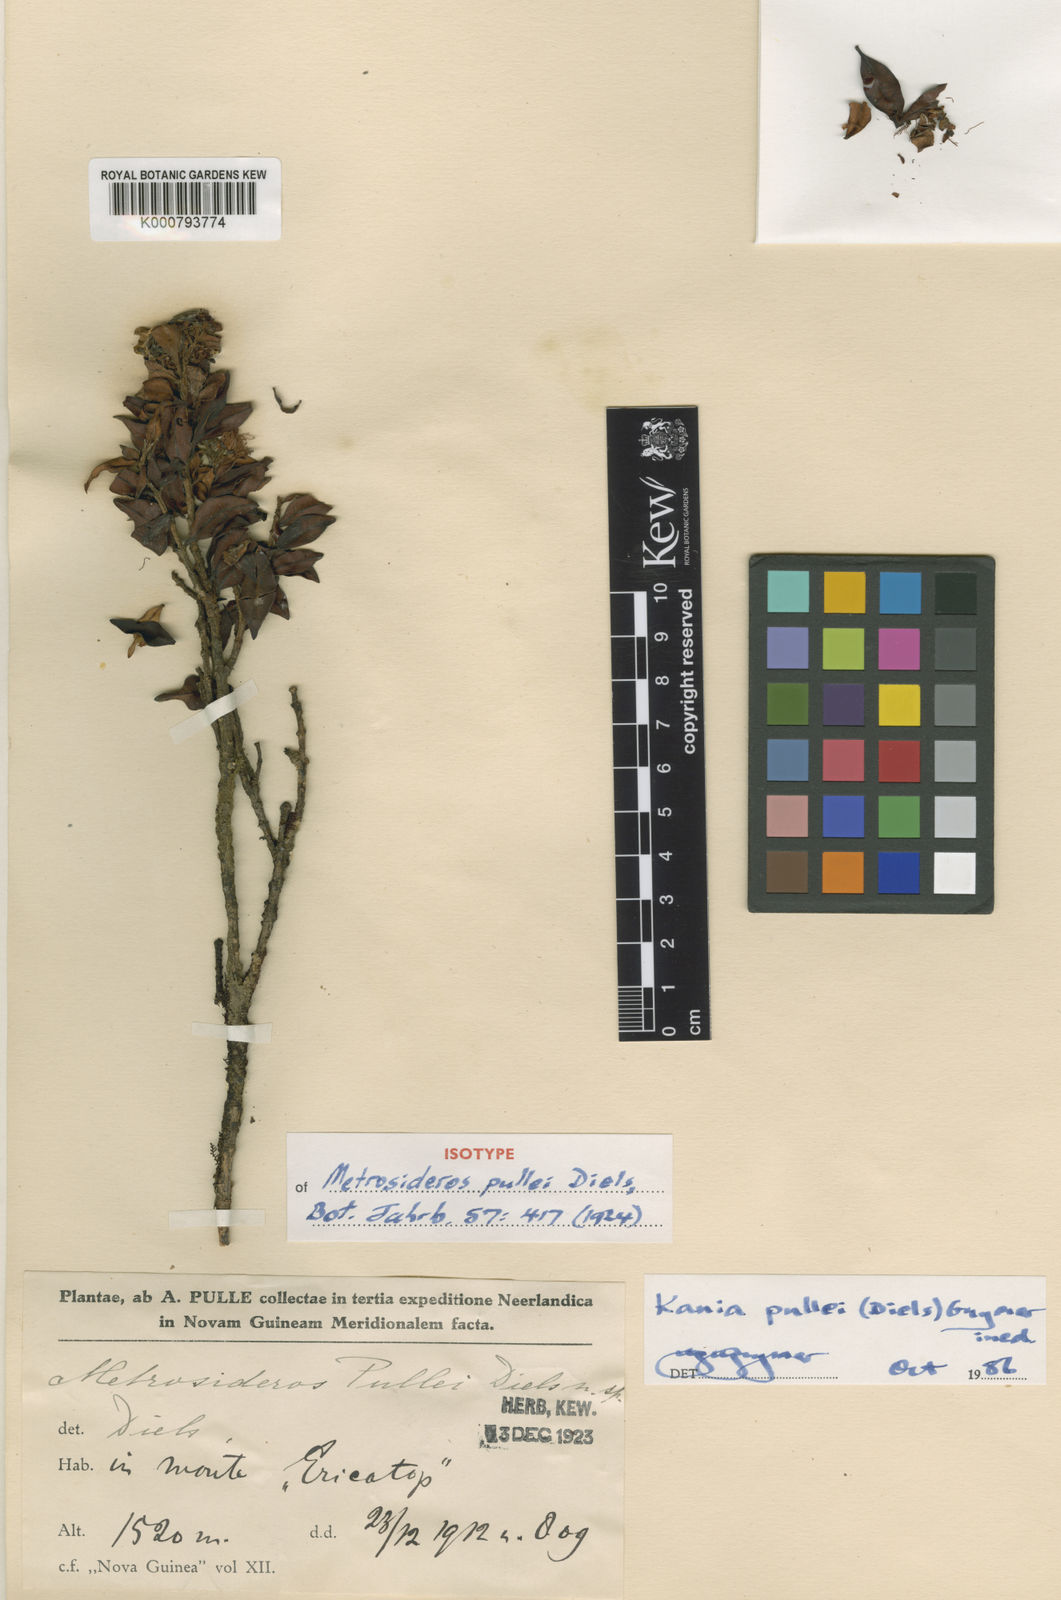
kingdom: Plantae
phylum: Tracheophyta
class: Magnoliopsida
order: Myrtales
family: Myrtaceae
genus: Kania
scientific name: Kania
